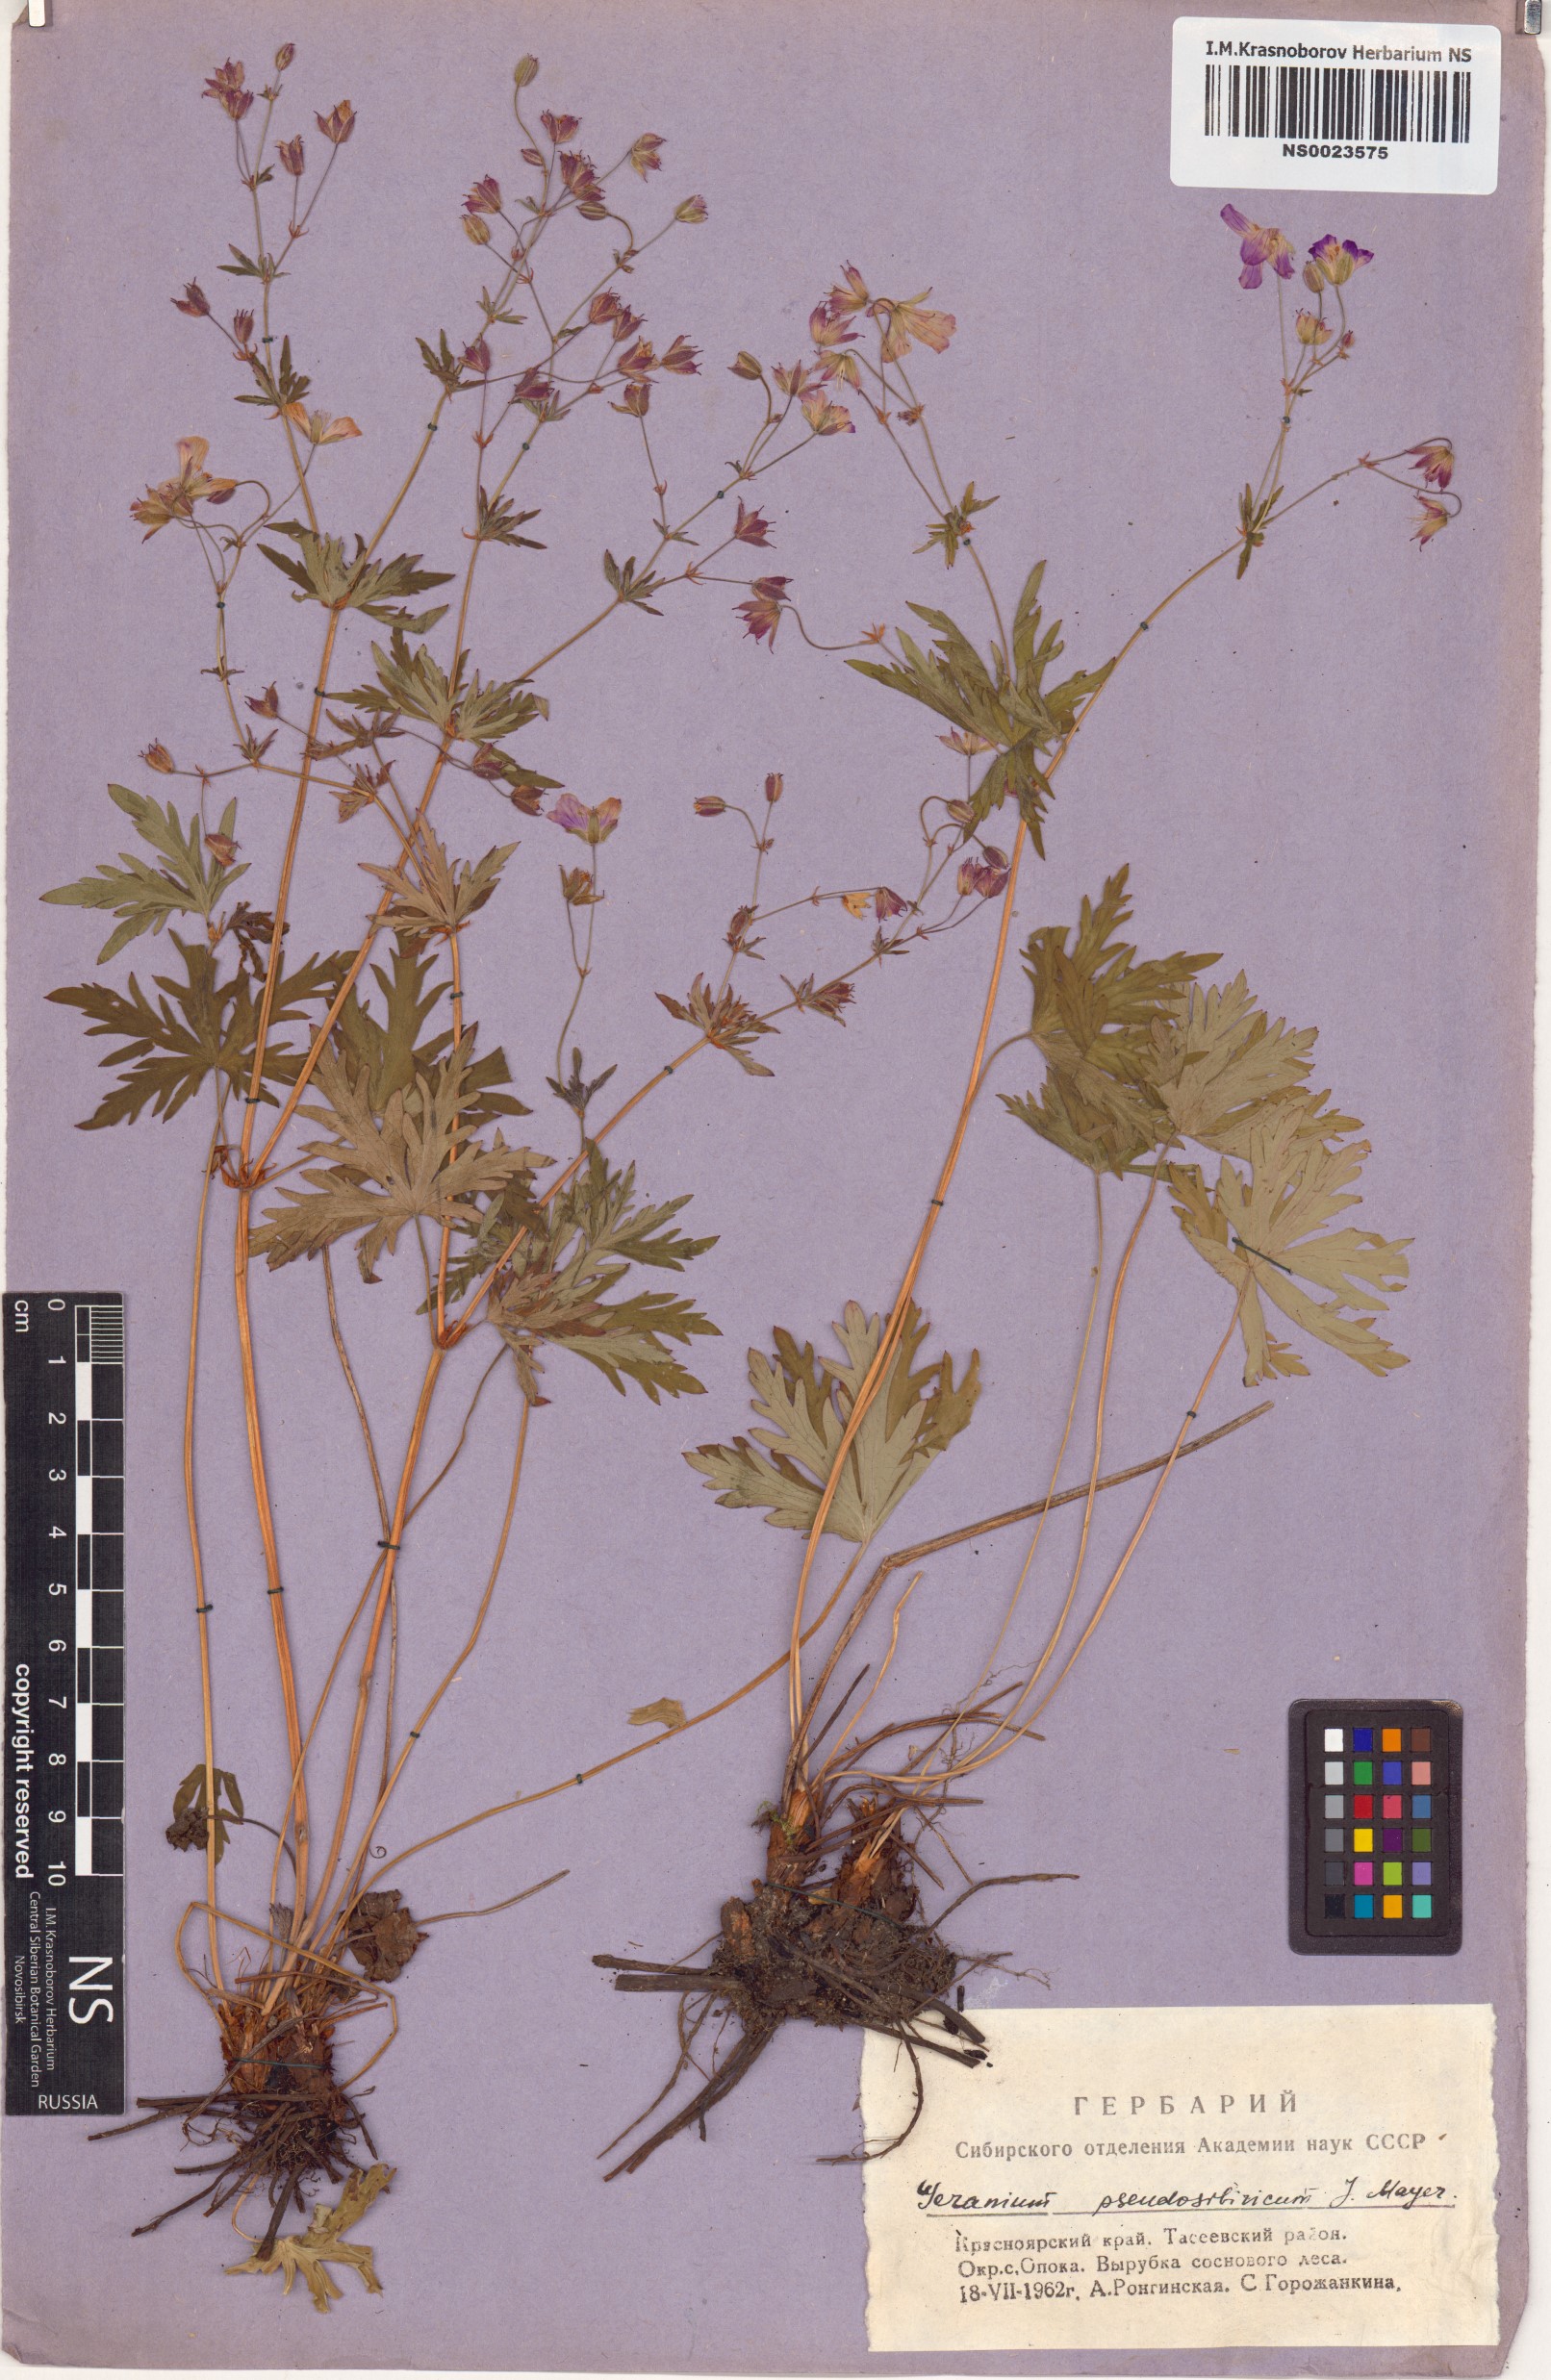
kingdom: Plantae
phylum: Tracheophyta
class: Magnoliopsida
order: Geraniales
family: Geraniaceae
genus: Geranium
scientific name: Geranium pseudosibiricum
